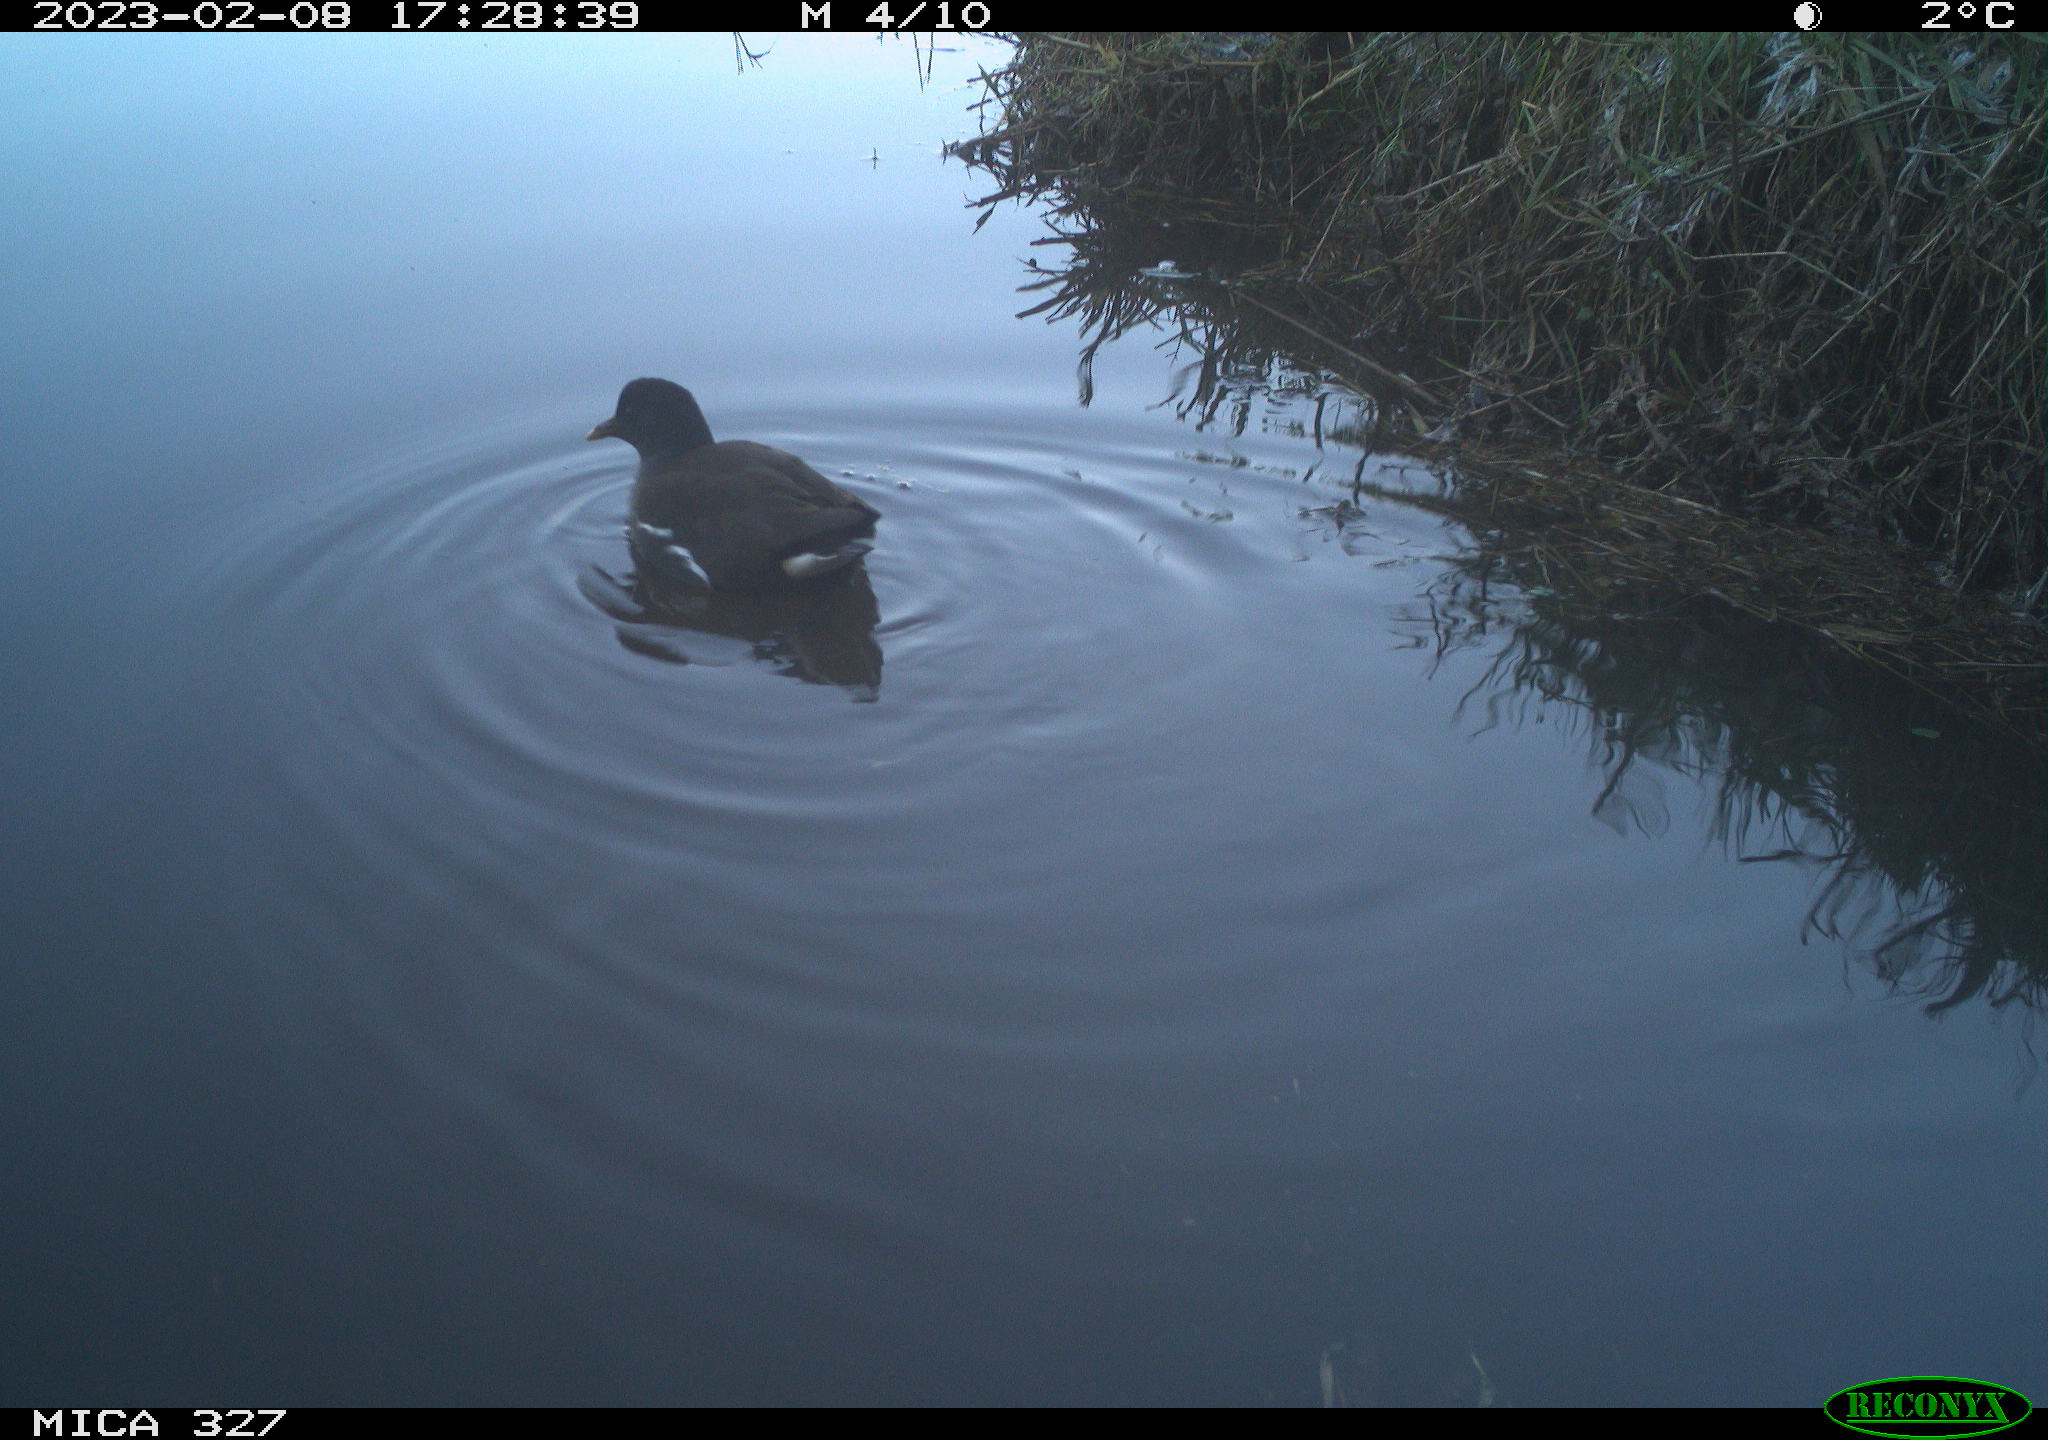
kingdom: Animalia
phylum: Chordata
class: Aves
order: Gruiformes
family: Rallidae
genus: Gallinula
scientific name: Gallinula chloropus
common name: Common moorhen
